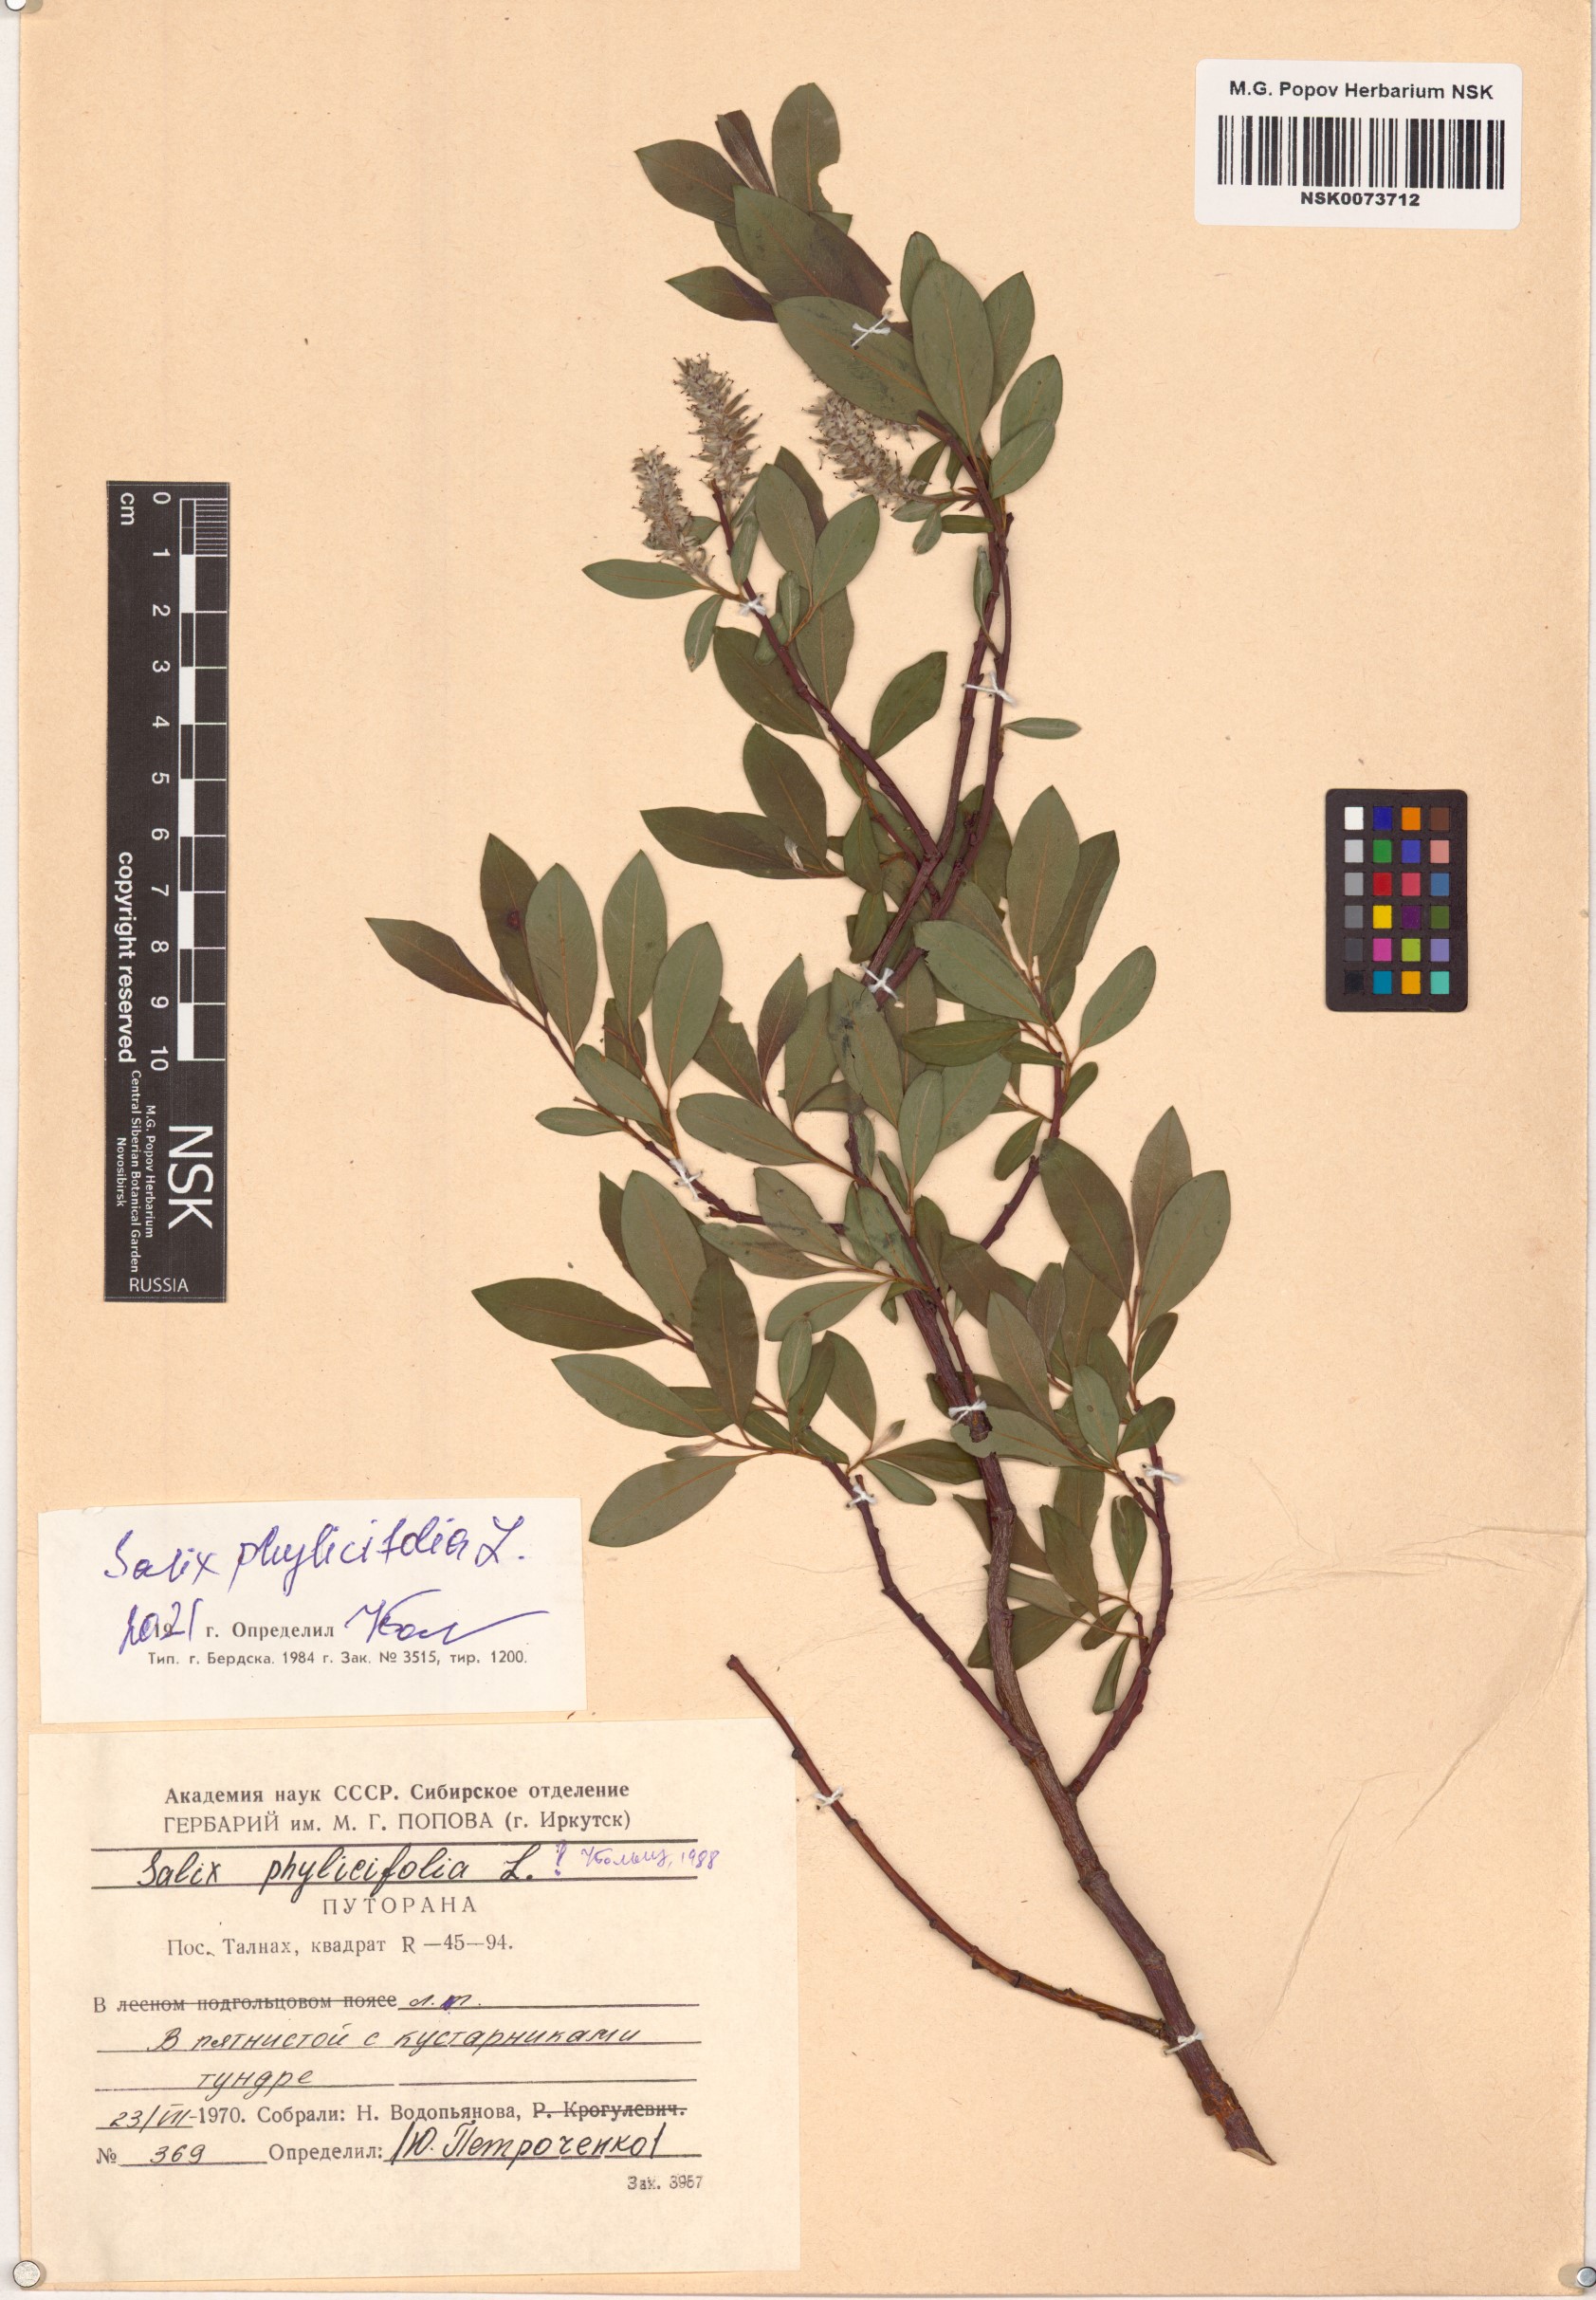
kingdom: Plantae
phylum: Tracheophyta
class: Magnoliopsida
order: Malpighiales
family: Salicaceae
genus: Salix
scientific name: Salix phylicifolia
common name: Tea-leaved willow
